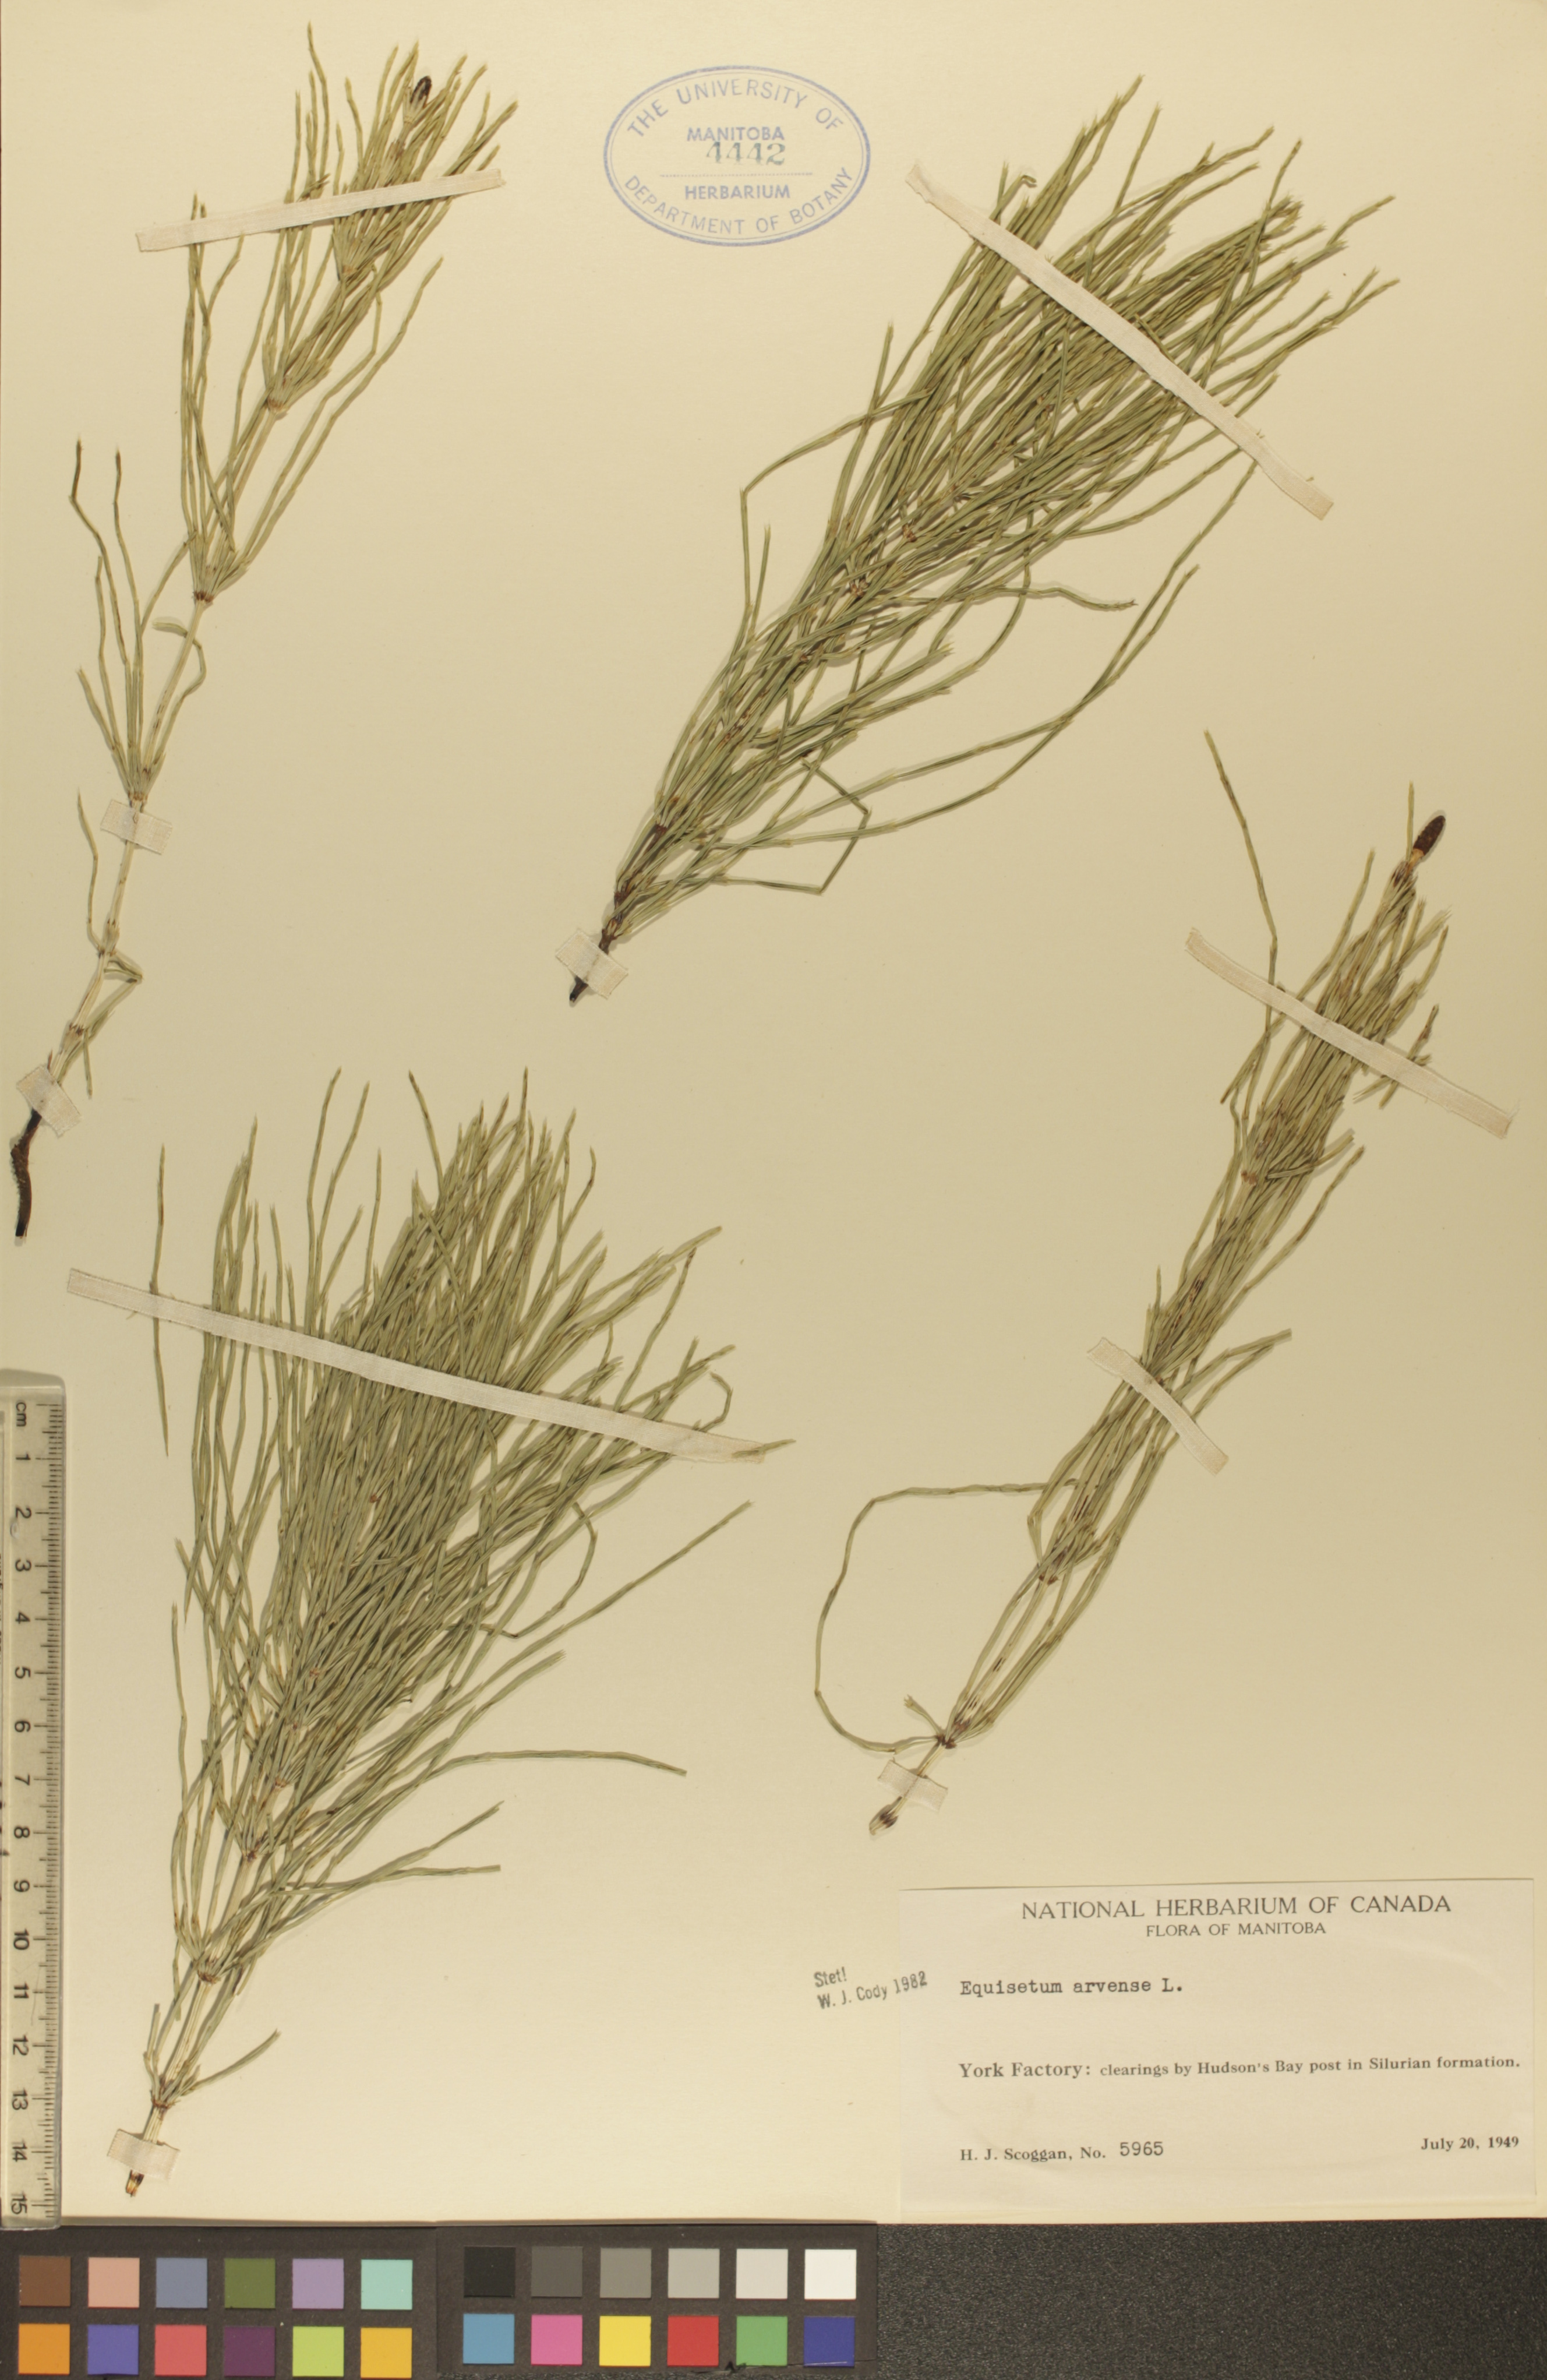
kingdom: Plantae
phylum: Tracheophyta
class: Polypodiopsida
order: Equisetales
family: Equisetaceae
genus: Equisetum
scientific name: Equisetum arvense
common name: Field horsetail
